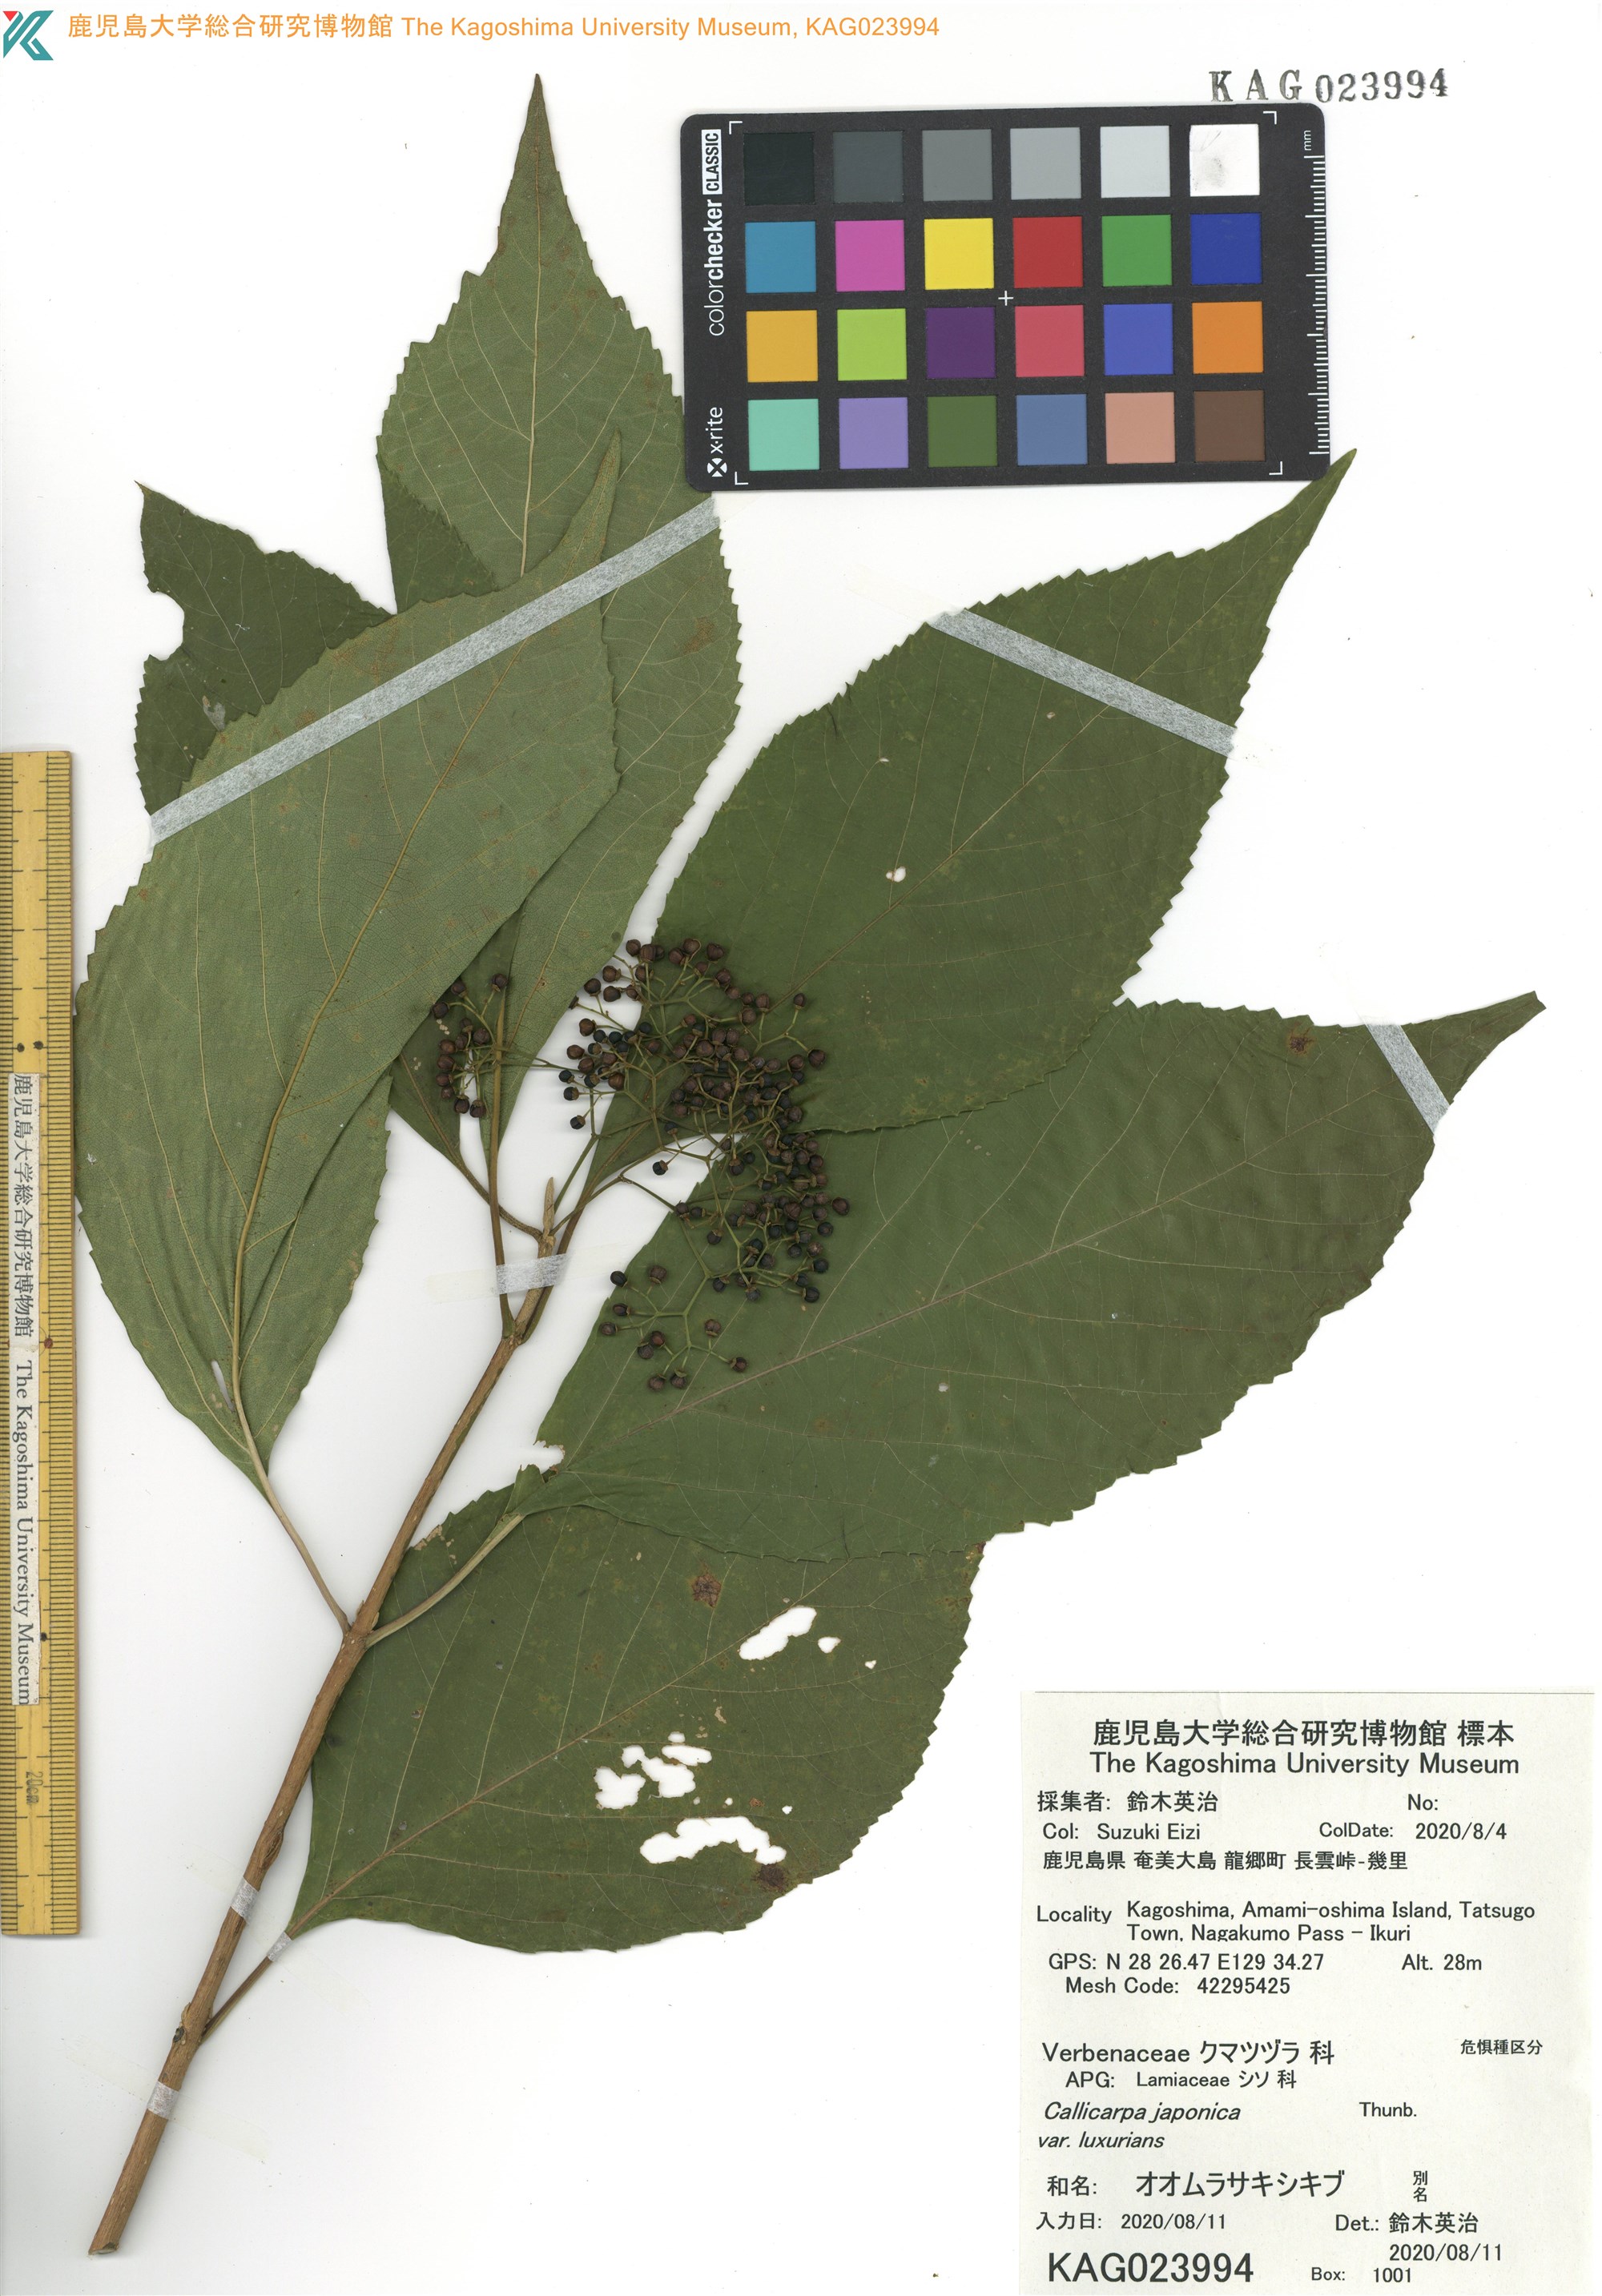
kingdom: Plantae
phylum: Tracheophyta
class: Magnoliopsida
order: Lamiales
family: Lamiaceae
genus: Callicarpa
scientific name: Callicarpa japonica
